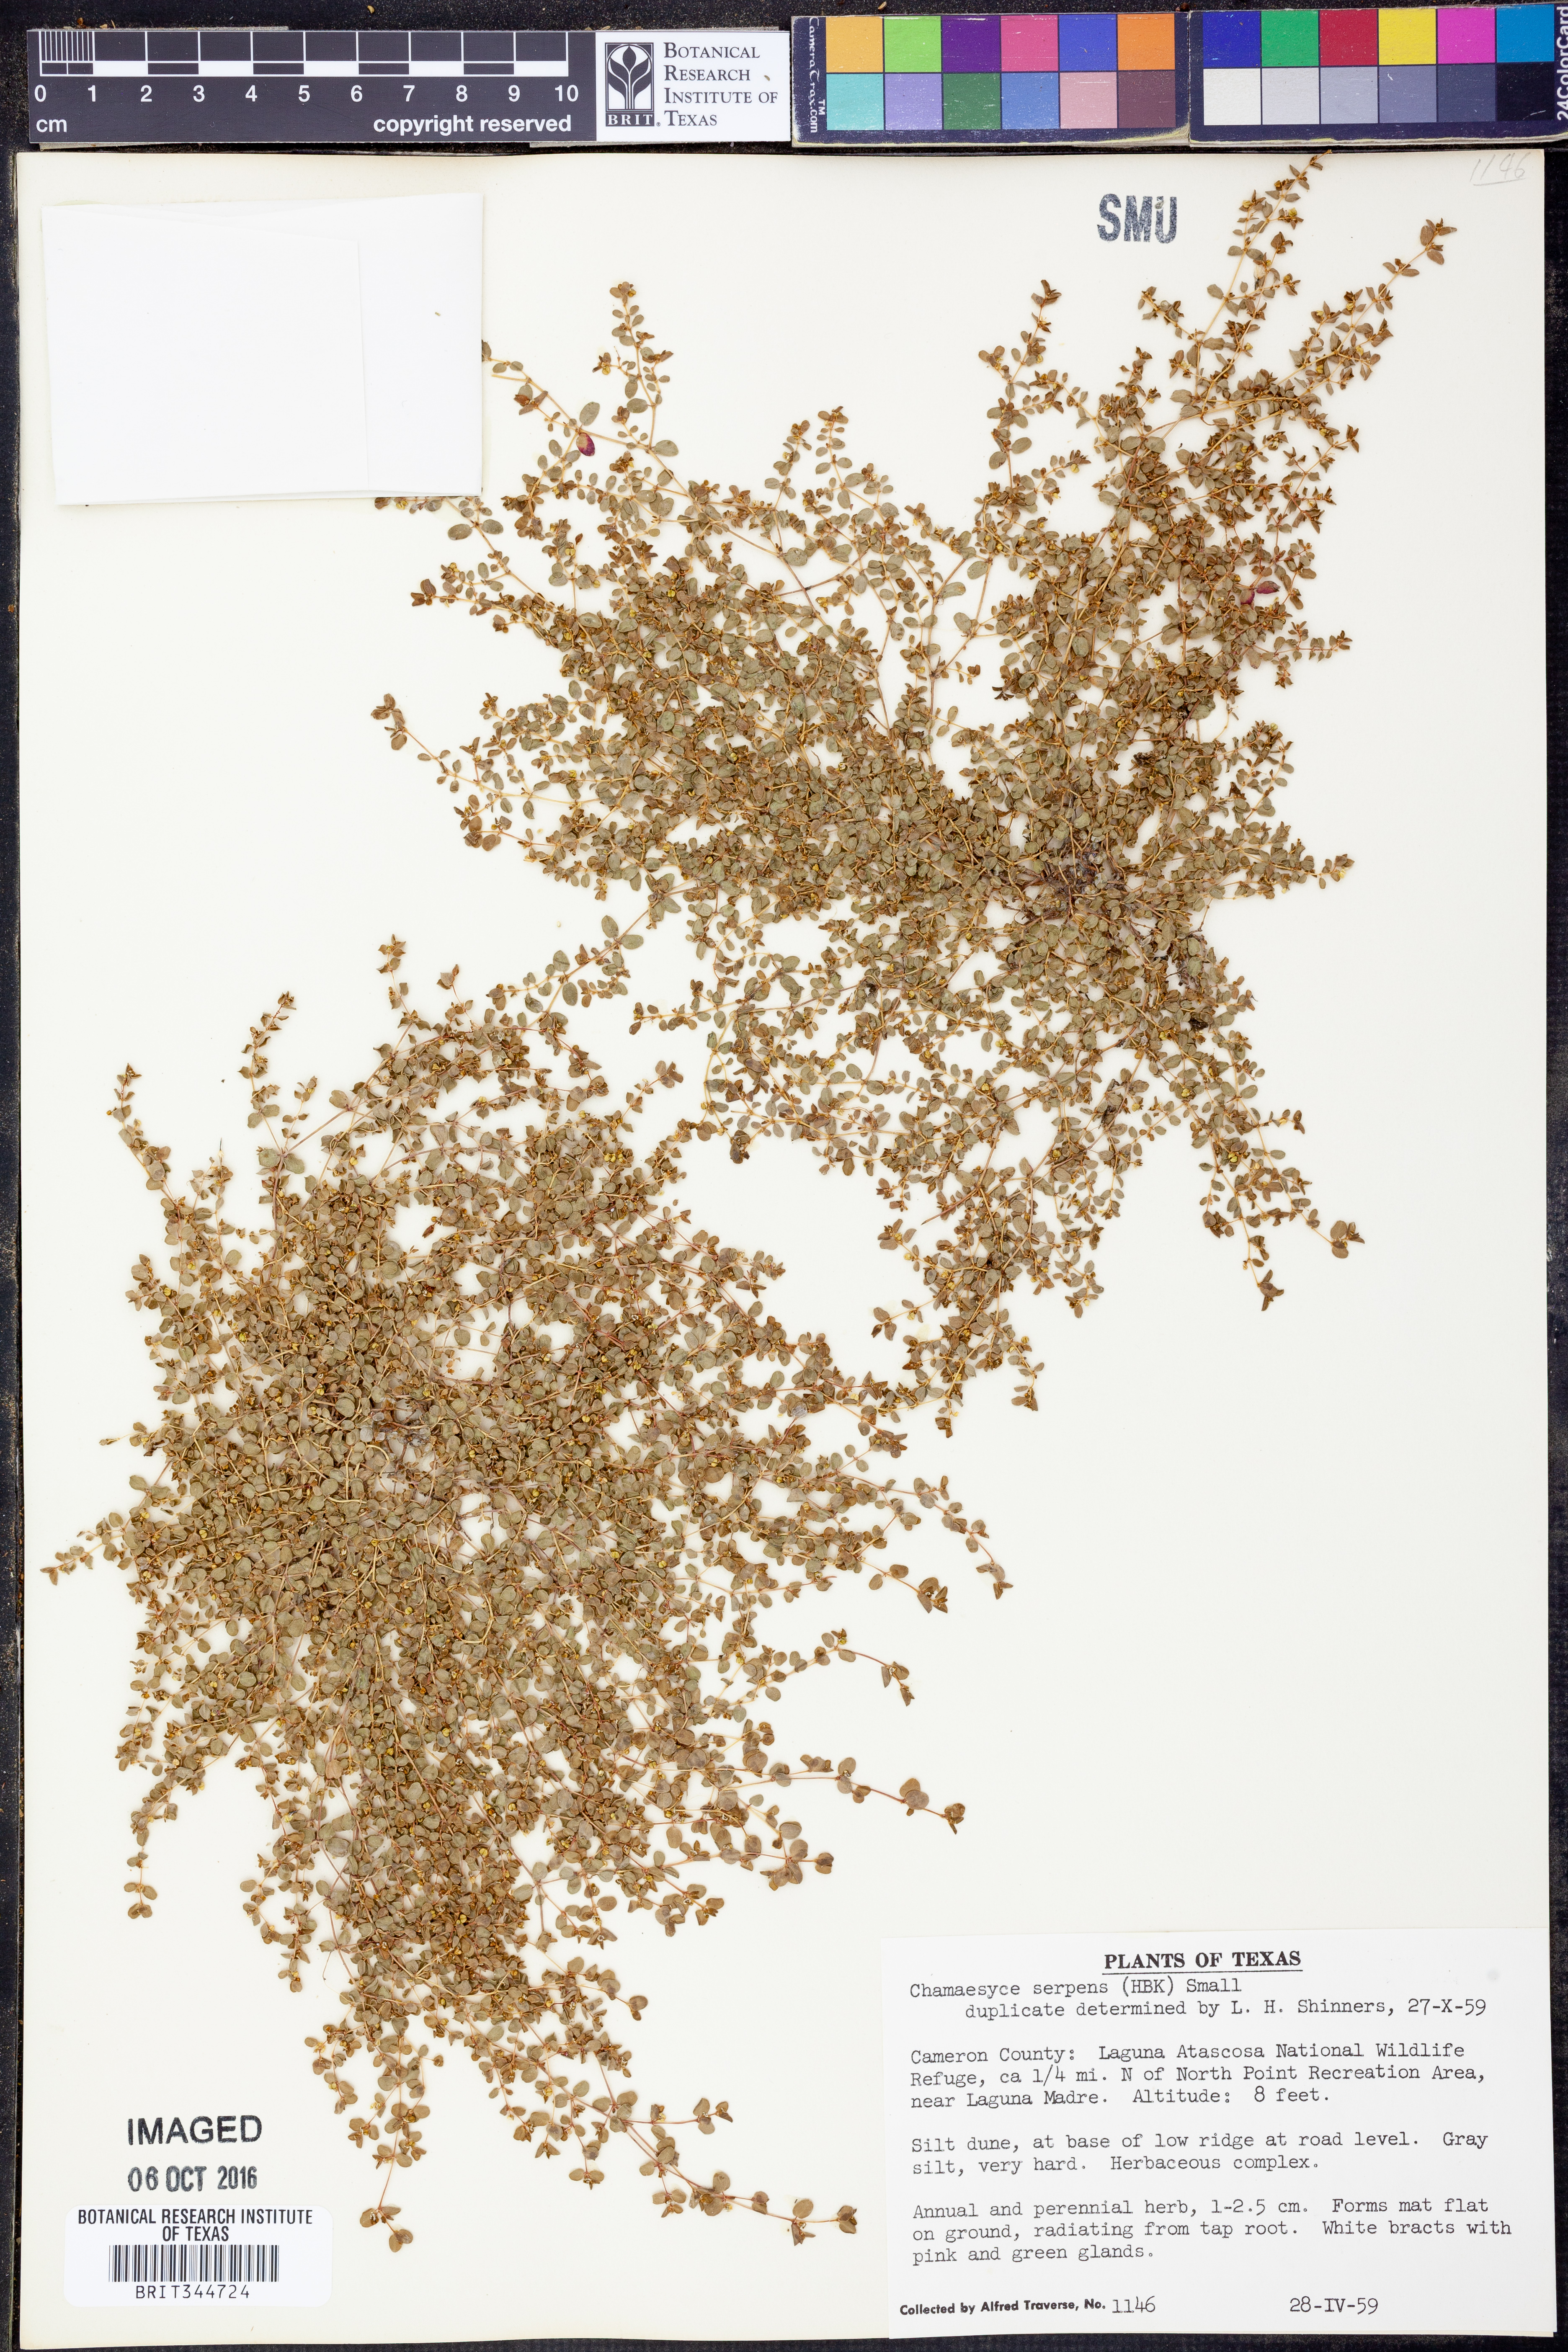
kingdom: Plantae
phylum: Tracheophyta
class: Magnoliopsida
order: Malpighiales
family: Euphorbiaceae
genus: Euphorbia
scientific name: Euphorbia serpens
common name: Matted sandmat
